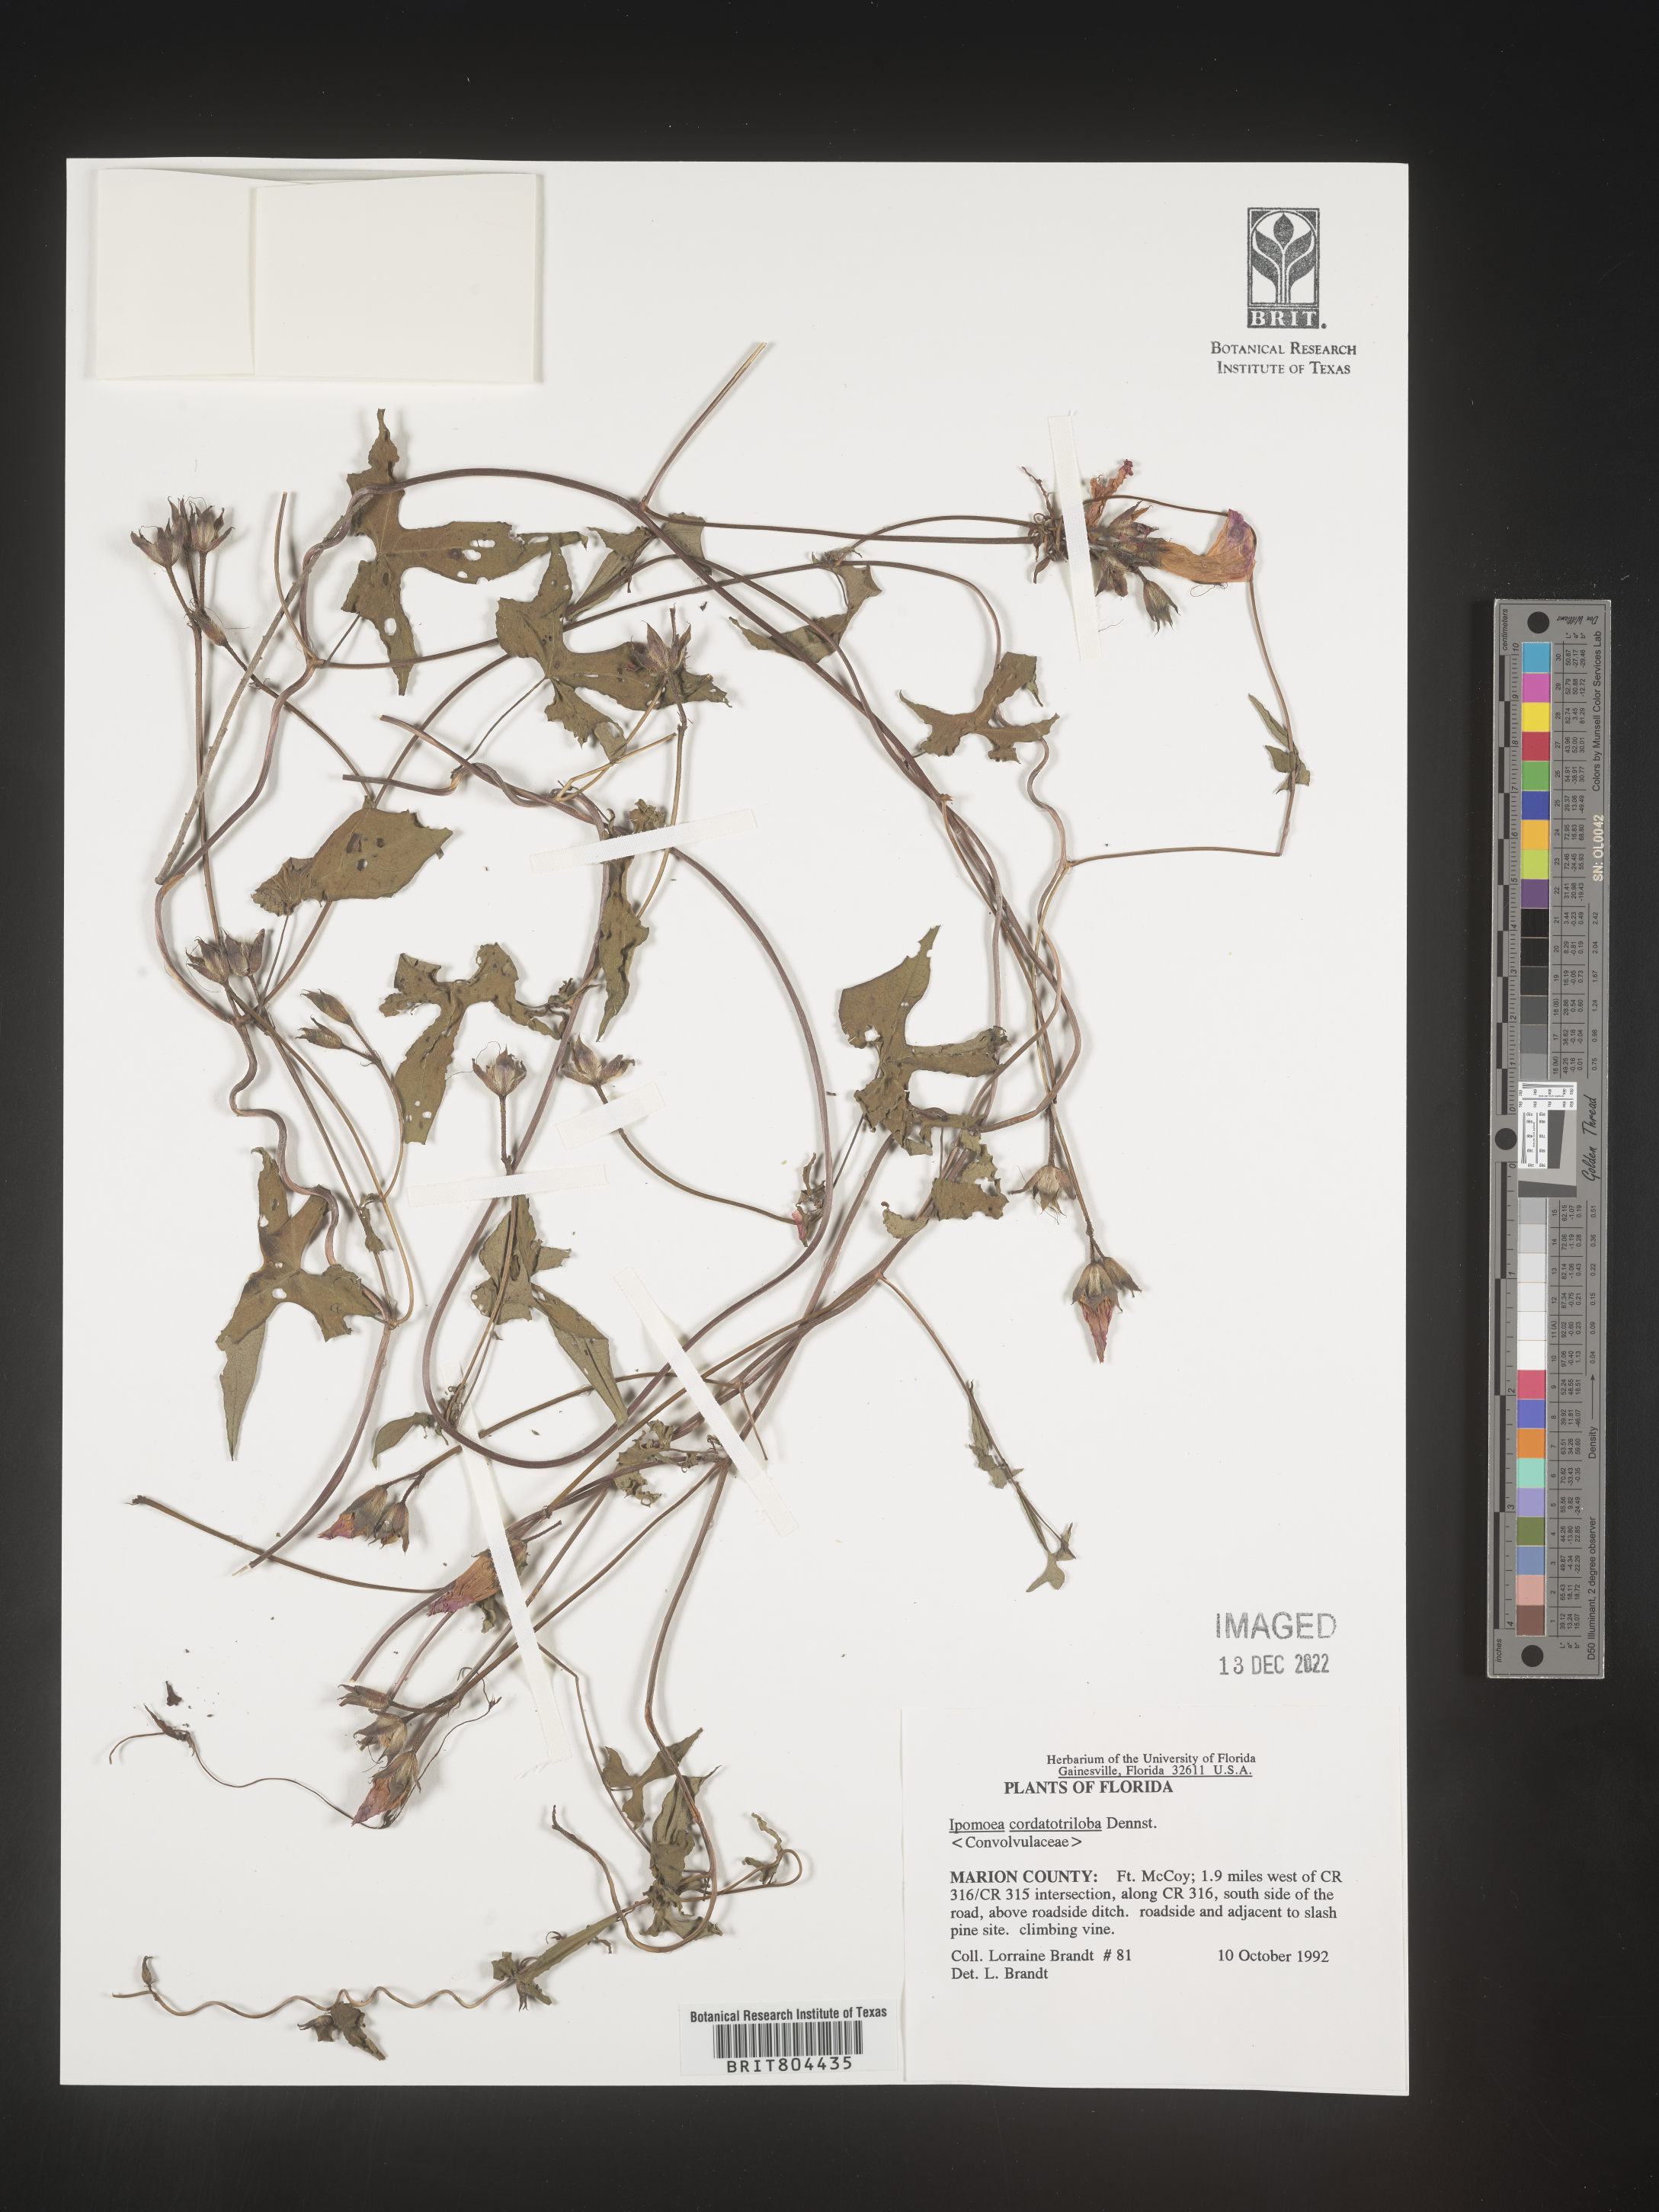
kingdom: Plantae
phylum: Tracheophyta
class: Magnoliopsida
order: Solanales
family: Convolvulaceae
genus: Ipomoea
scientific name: Ipomoea cordatotriloba
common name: Cotton morning glory
